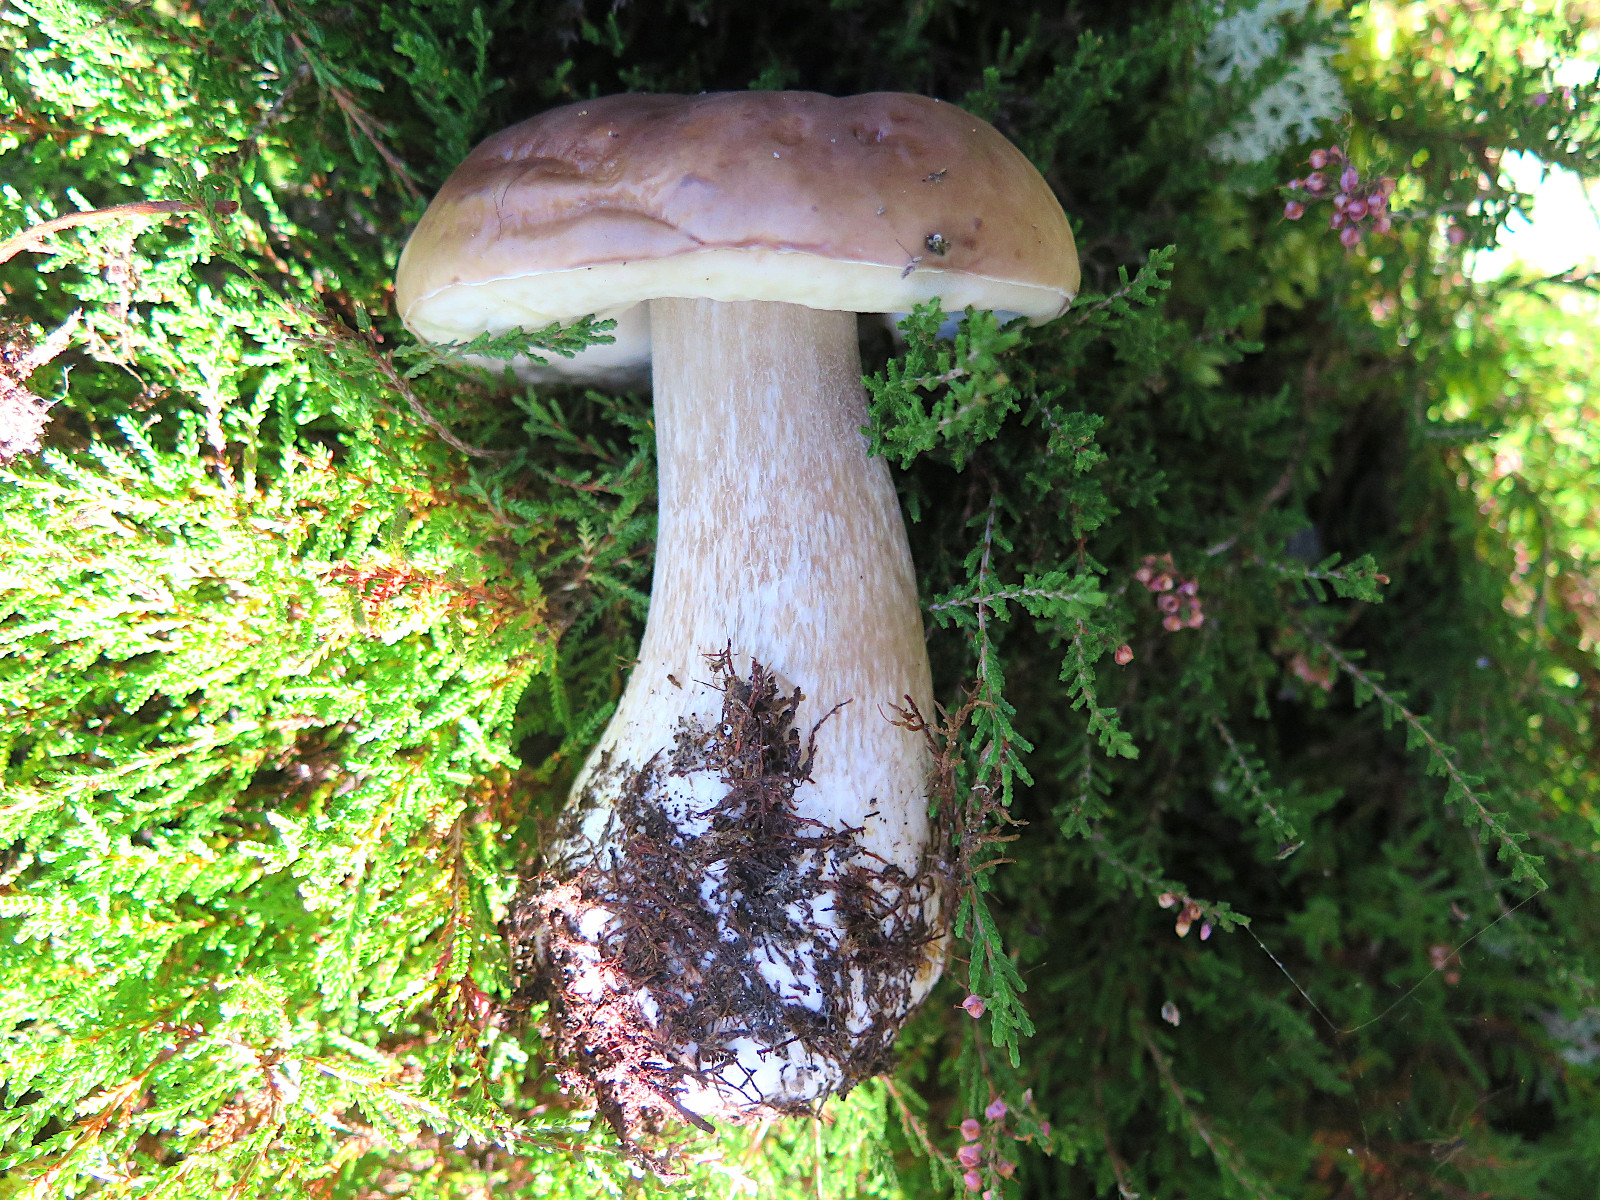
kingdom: Fungi
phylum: Basidiomycota
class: Agaricomycetes
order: Boletales
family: Boletaceae
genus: Boletus
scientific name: Boletus edulis
